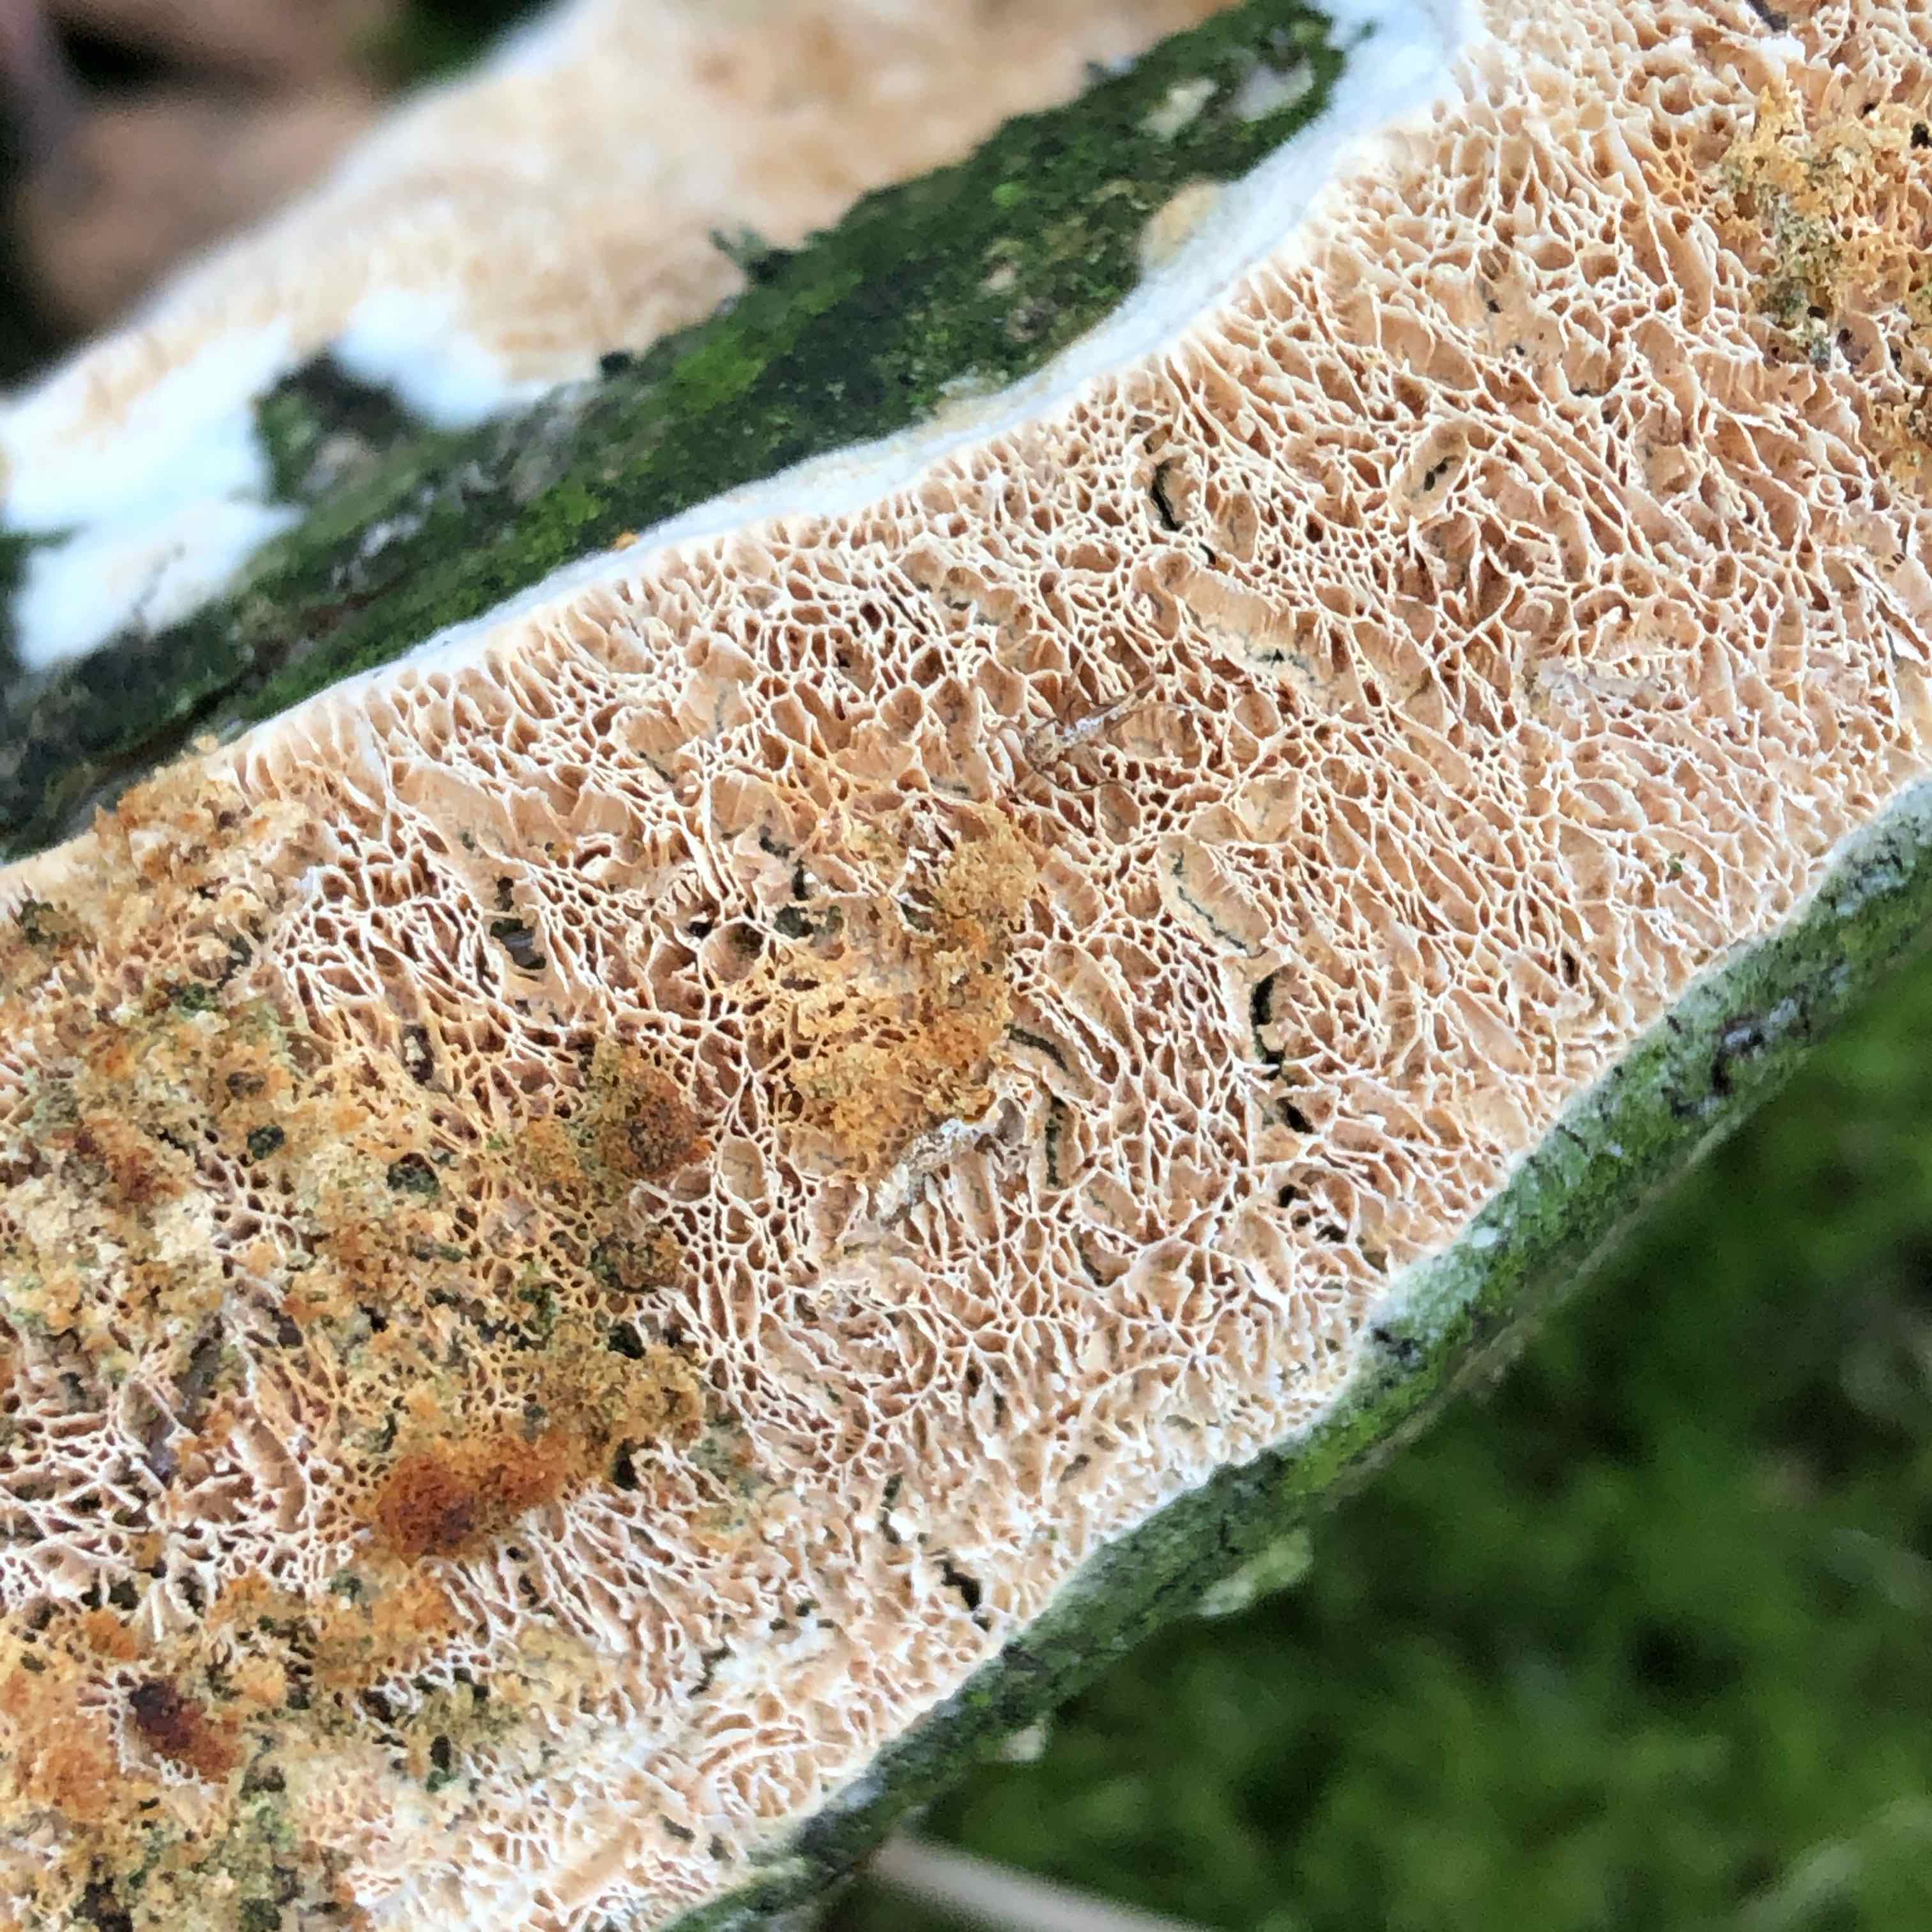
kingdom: Fungi
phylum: Basidiomycota
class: Agaricomycetes
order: Polyporales
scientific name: Polyporales
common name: poresvampordenen
